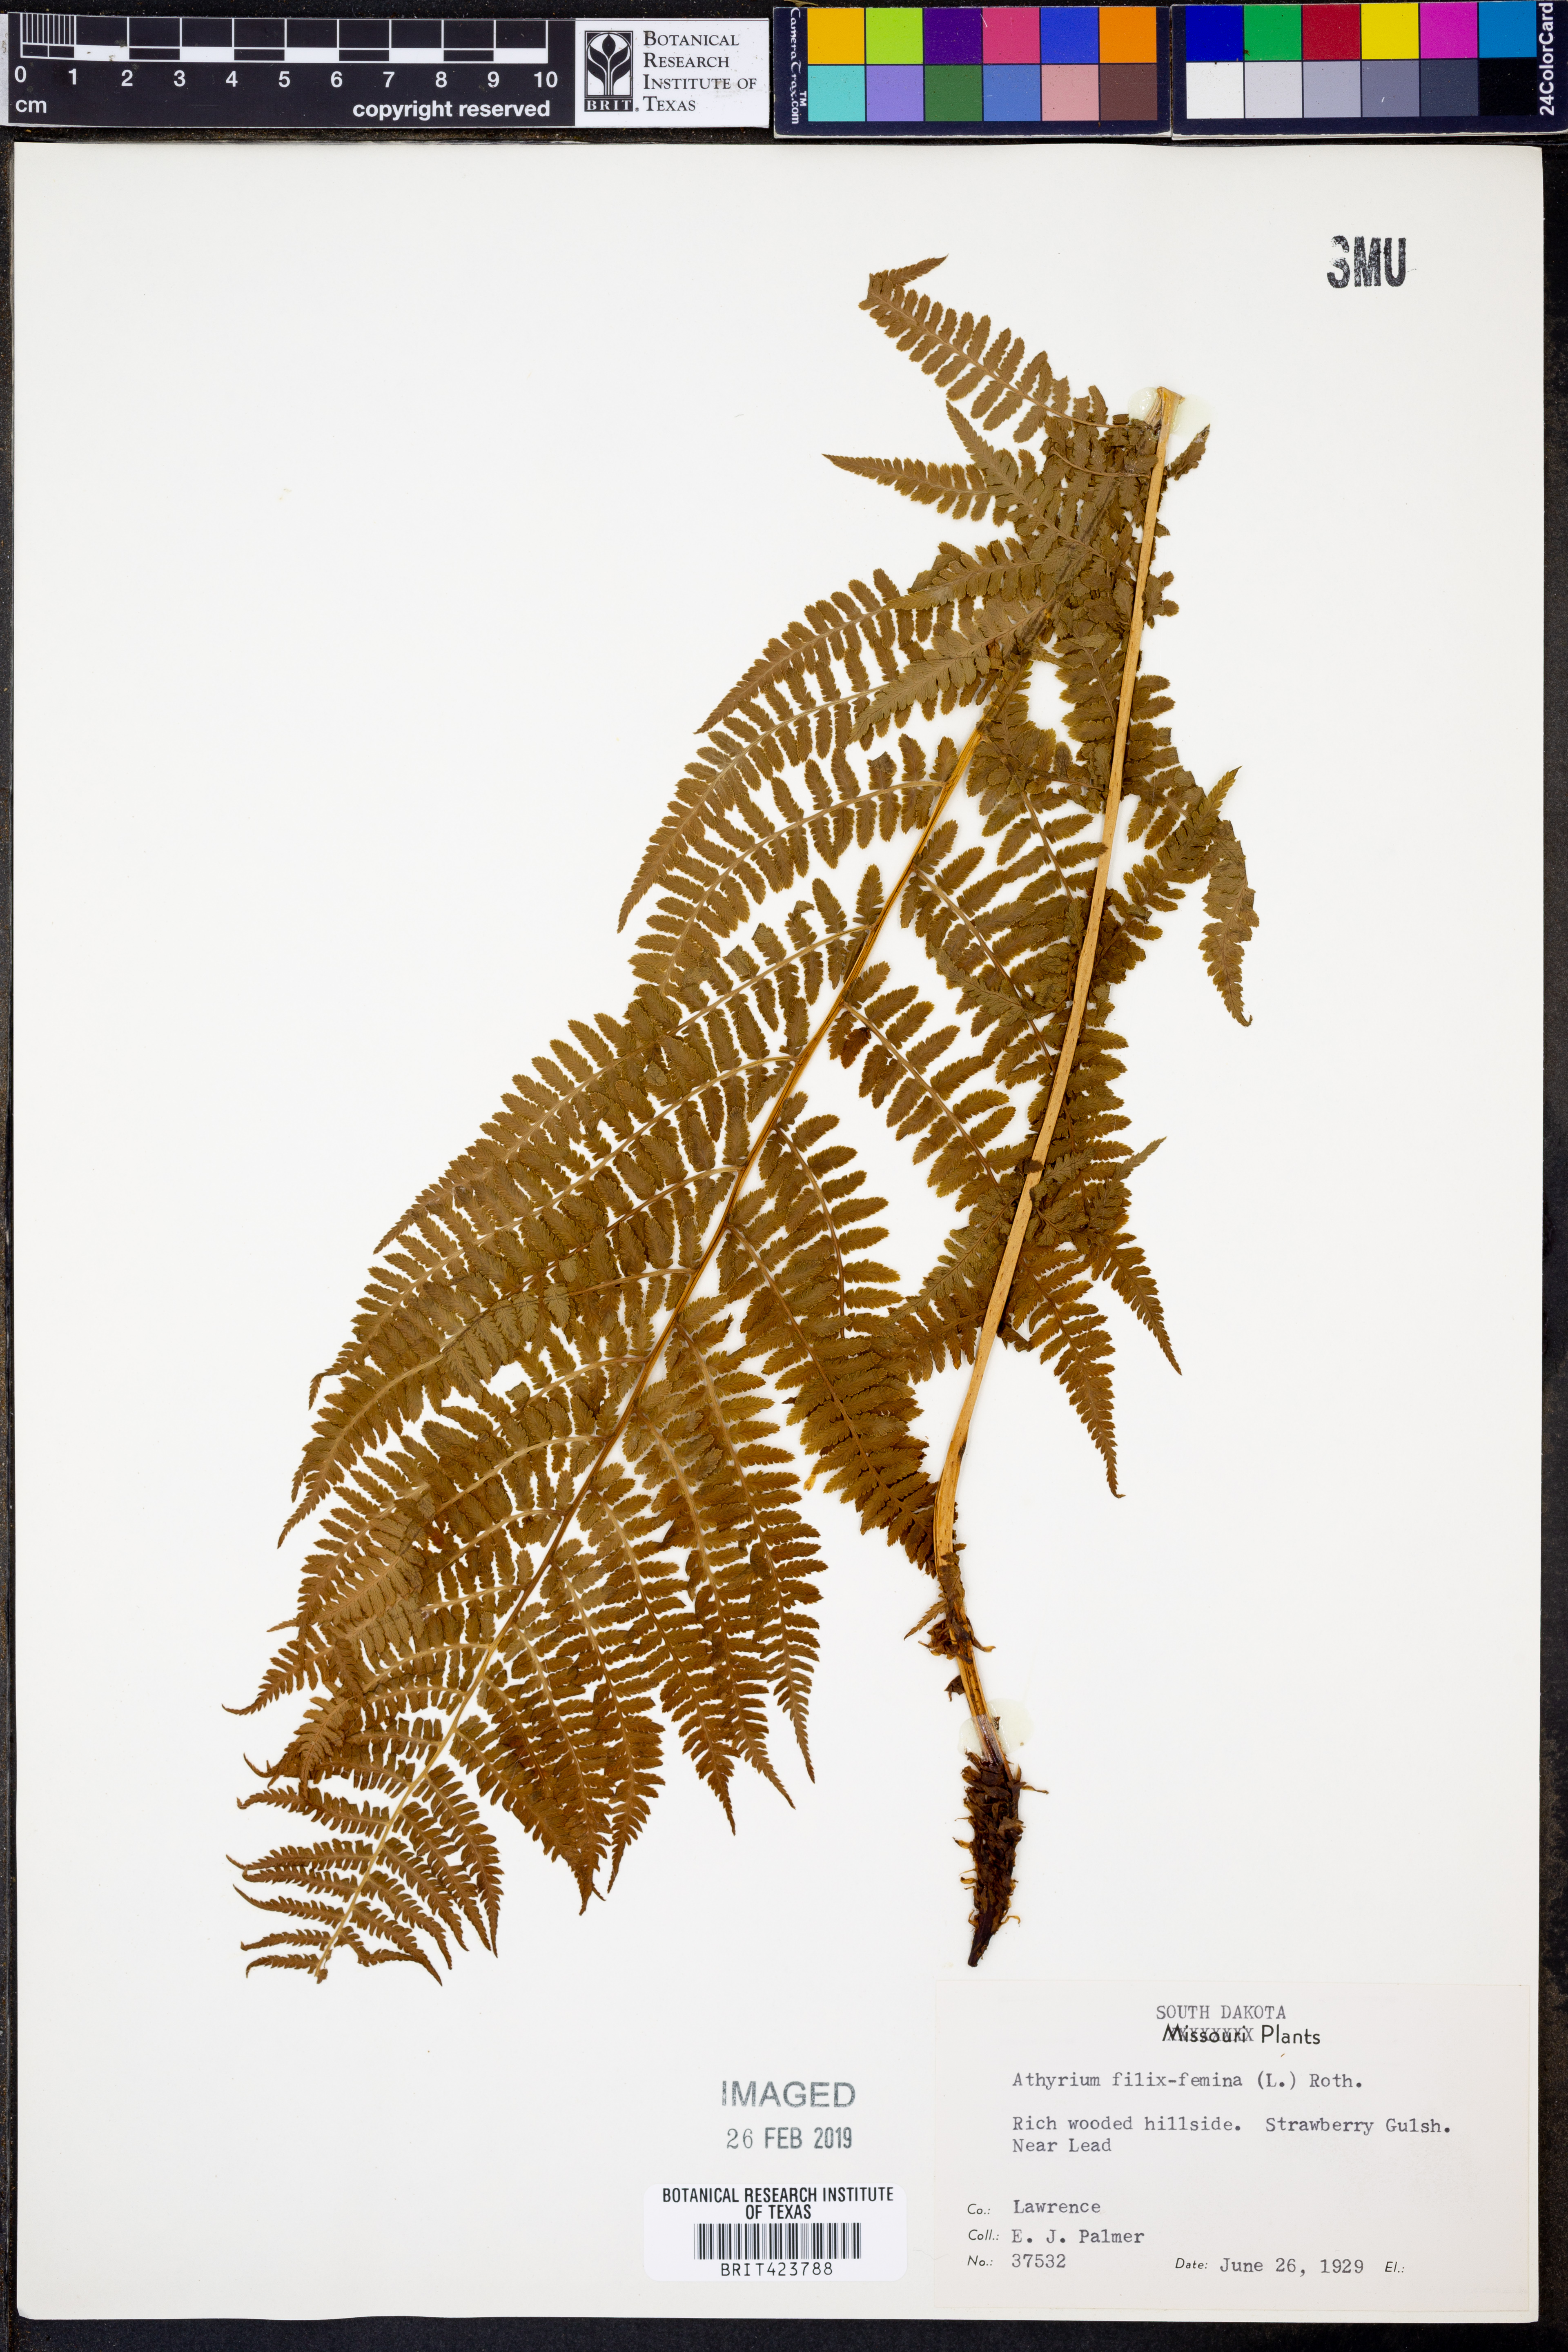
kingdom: Plantae
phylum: Tracheophyta
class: Polypodiopsida
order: Polypodiales
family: Athyriaceae
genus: Athyrium
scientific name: Athyrium filix-femina
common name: Lady fern
